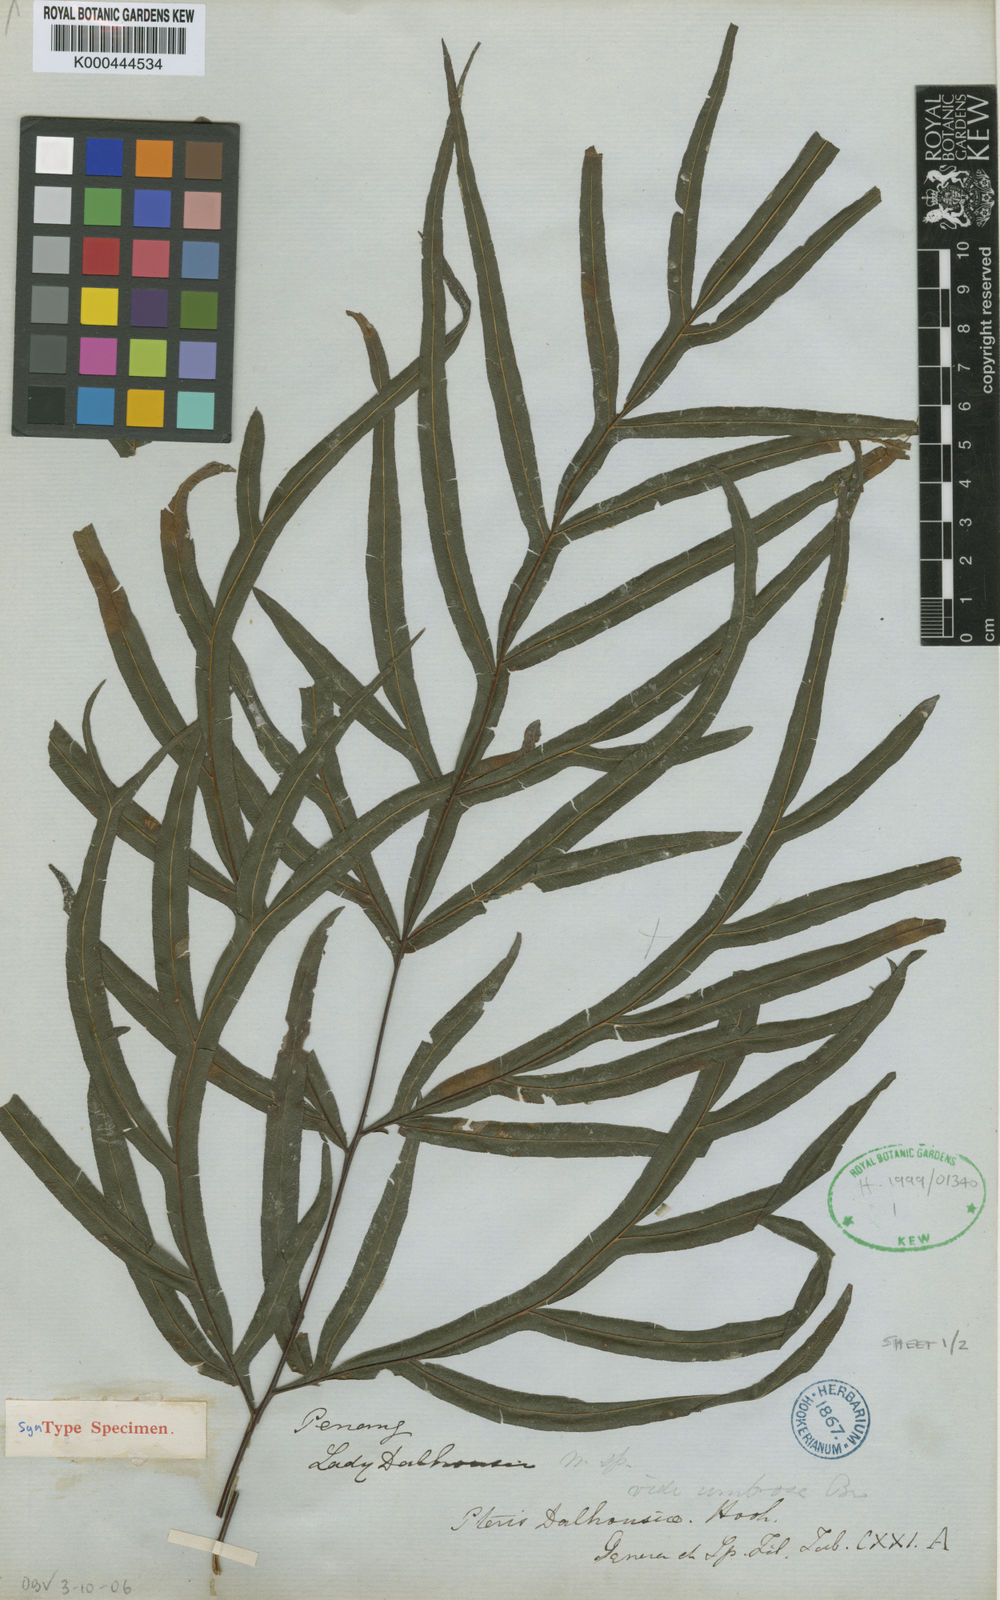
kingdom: Plantae
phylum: Tracheophyta
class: Polypodiopsida
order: Polypodiales
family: Pteridaceae
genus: Pteris
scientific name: Pteris dalhousieae
